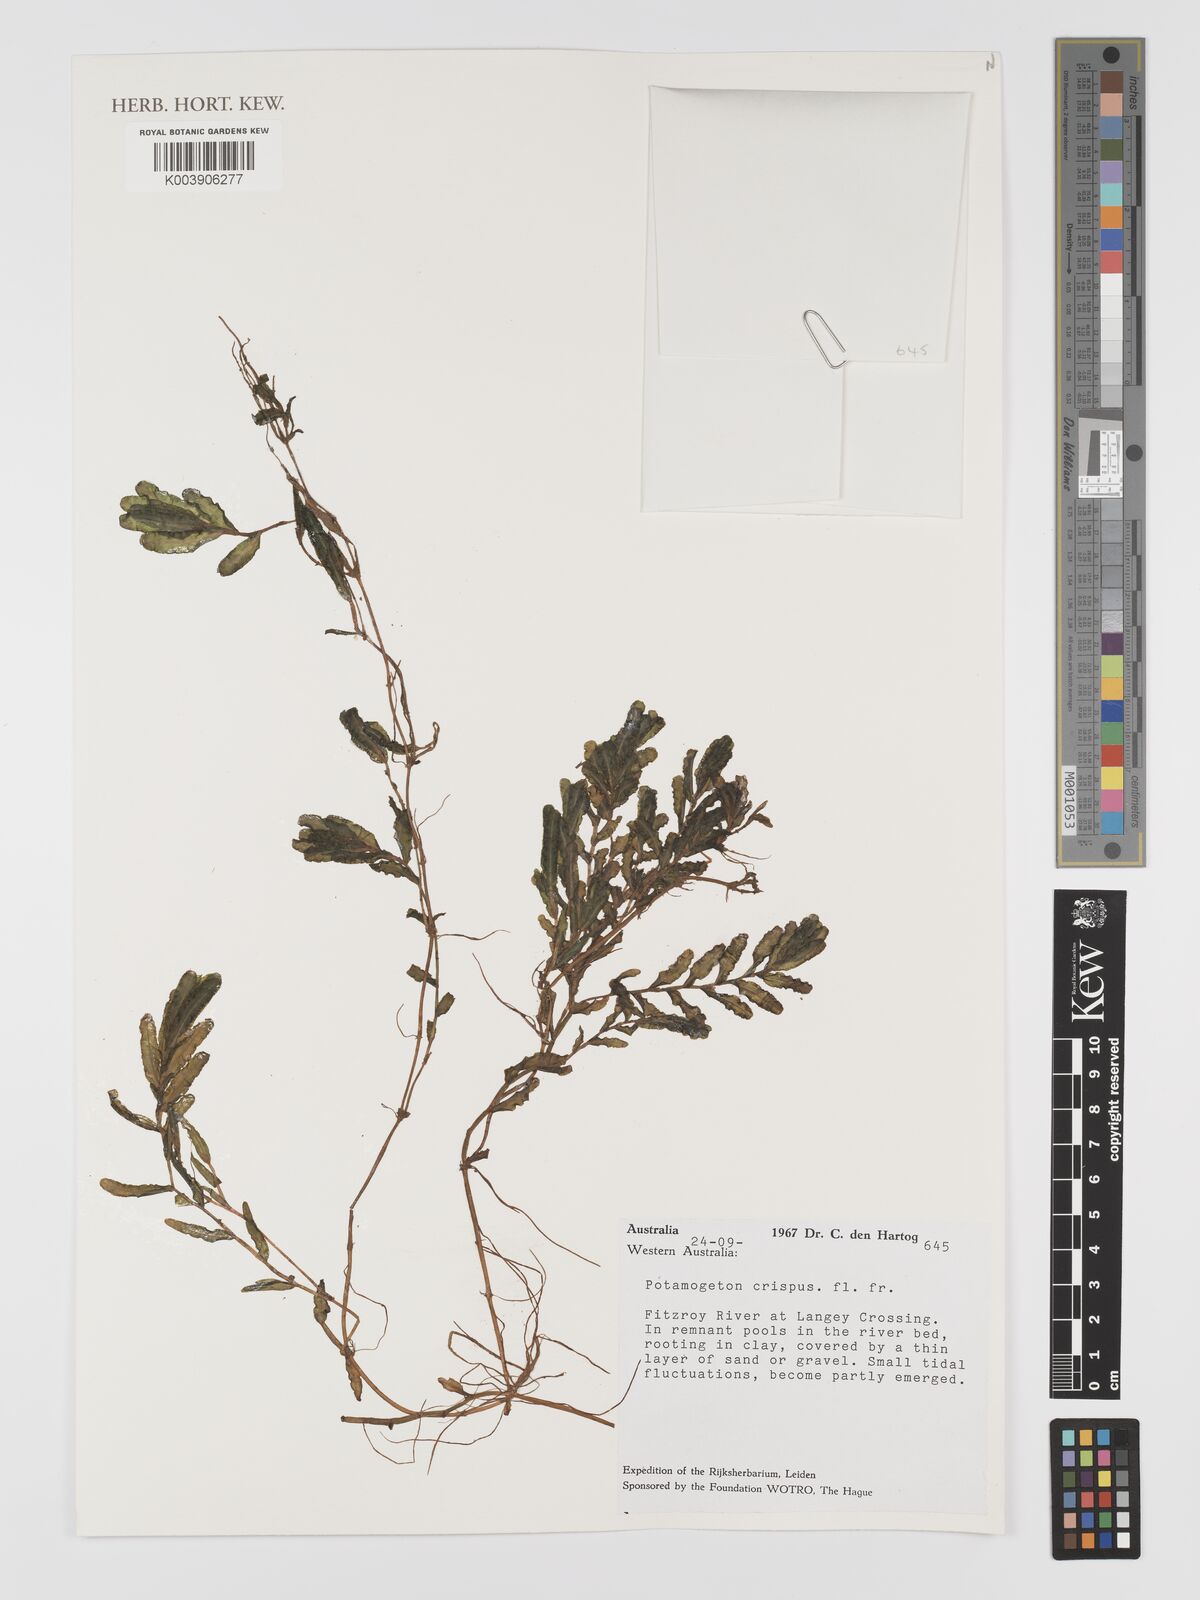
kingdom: Plantae
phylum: Tracheophyta
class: Liliopsida
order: Alismatales
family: Potamogetonaceae
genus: Potamogeton
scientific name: Potamogeton crispus
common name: Curled pondweed
